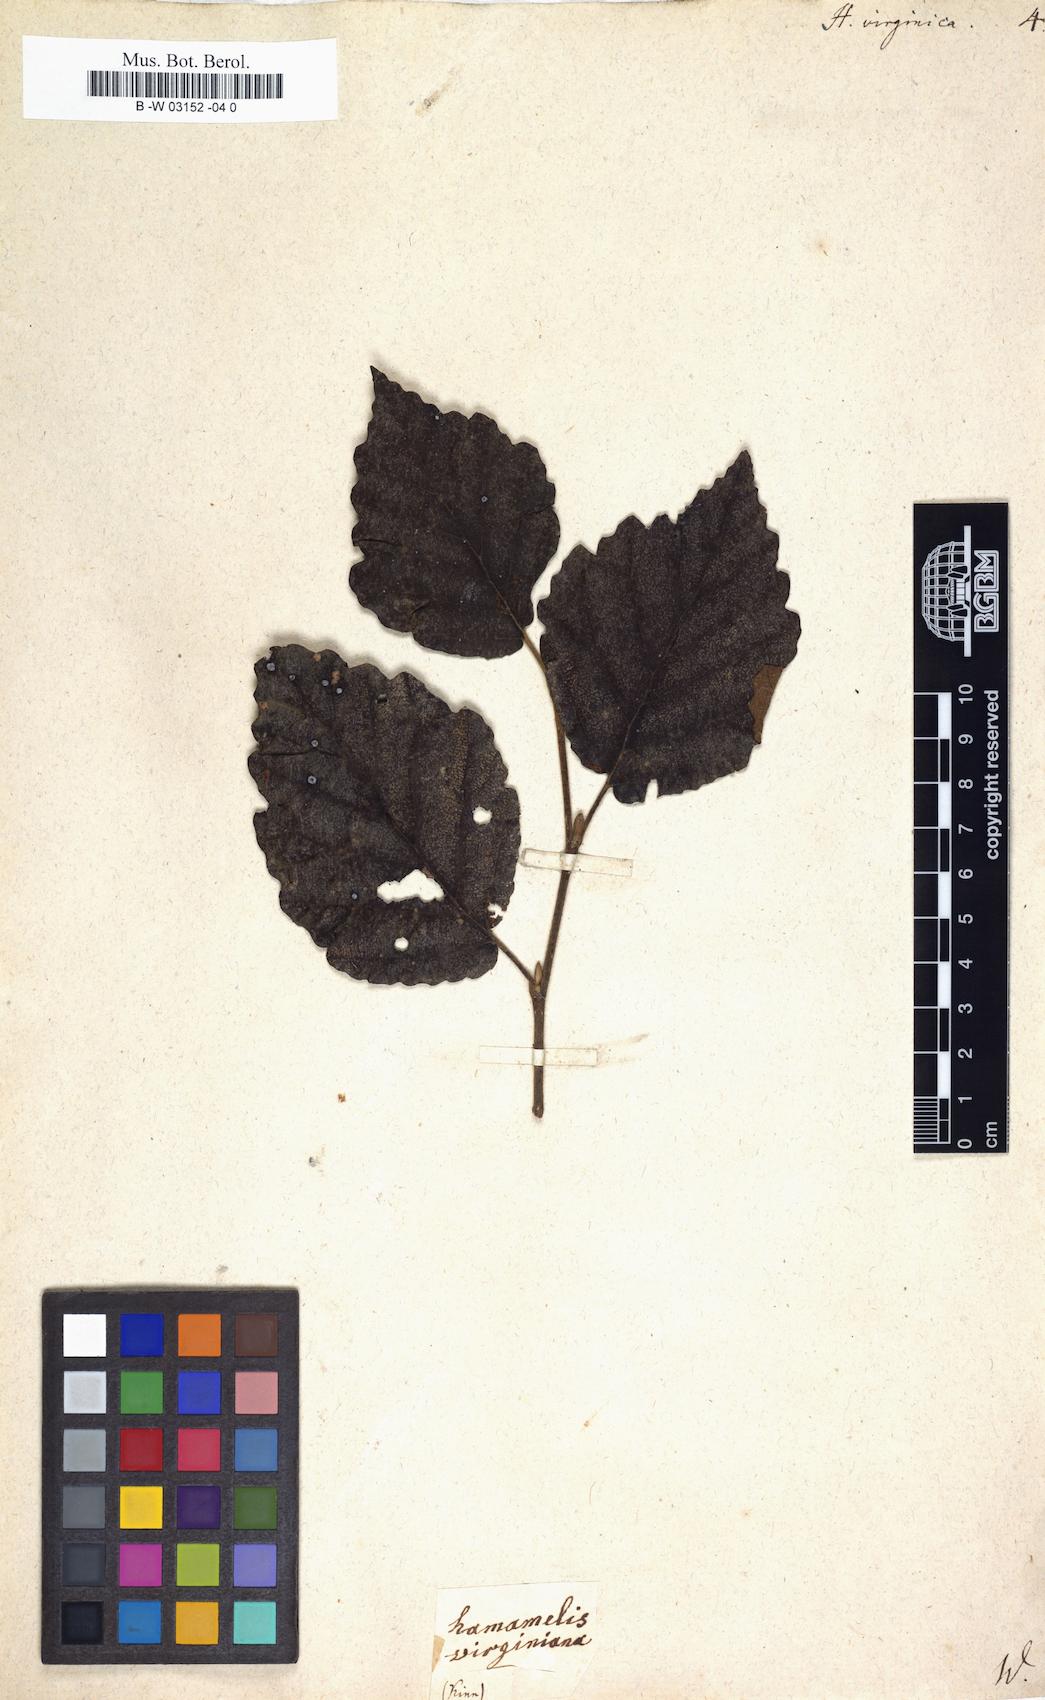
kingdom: Plantae
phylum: Tracheophyta
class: Magnoliopsida
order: Saxifragales
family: Hamamelidaceae
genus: Hamamelis
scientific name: Hamamelis virginiana
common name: Witch-hazel
